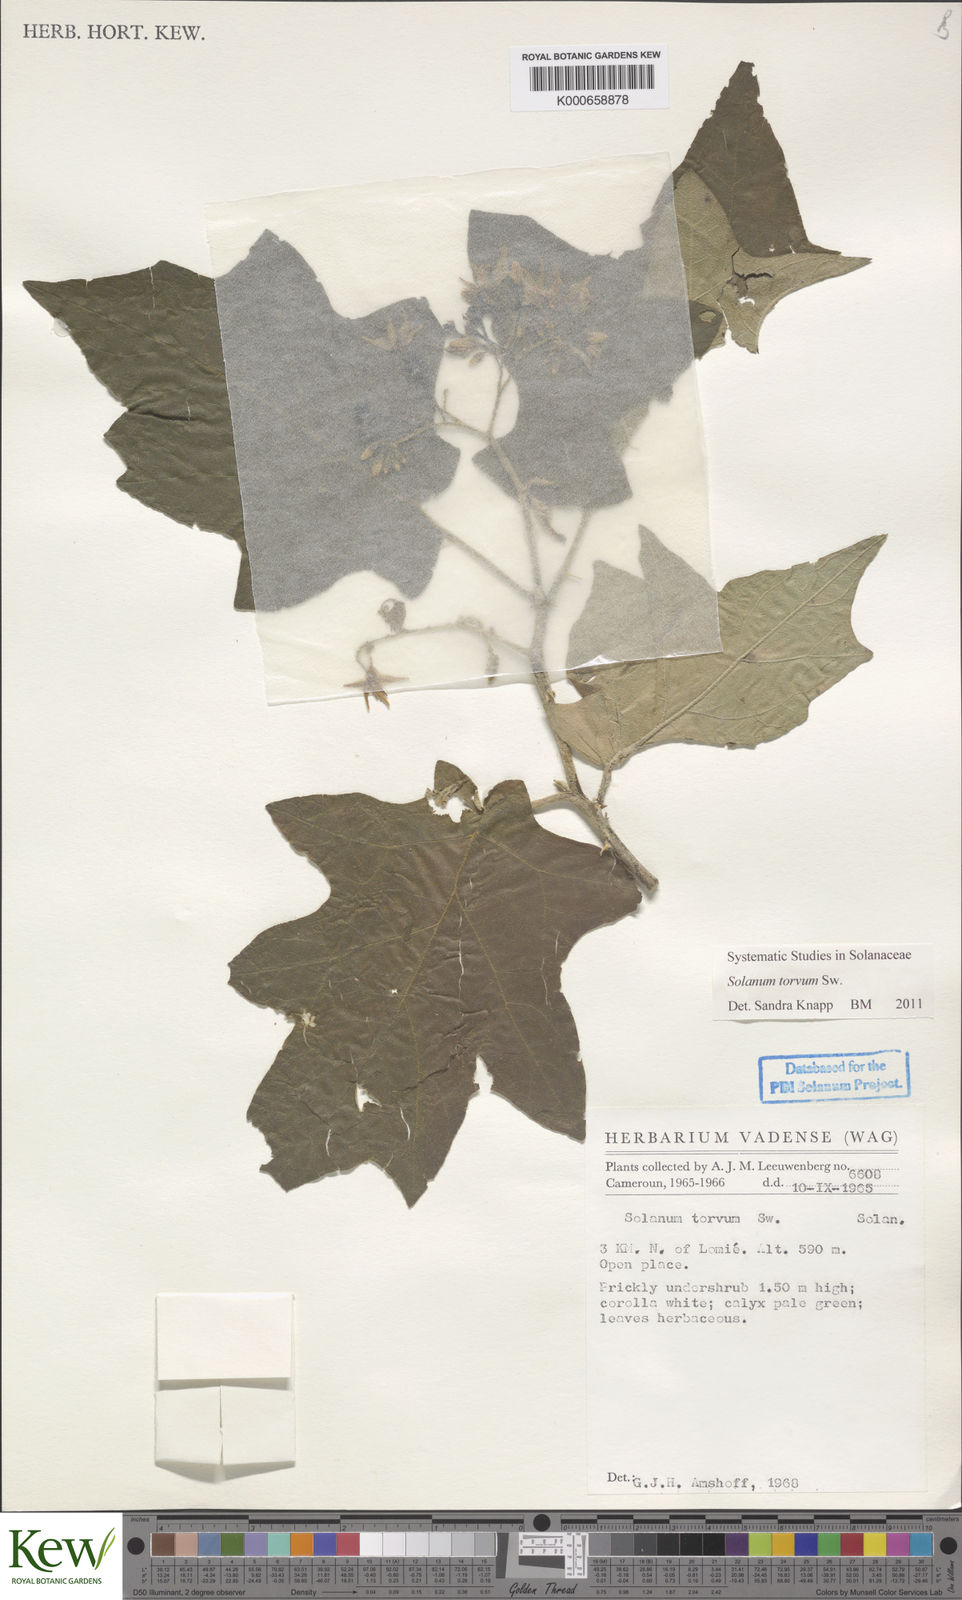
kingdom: Plantae
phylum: Tracheophyta
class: Magnoliopsida
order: Solanales
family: Solanaceae
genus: Solanum
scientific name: Solanum torvum
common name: Turkey berry
